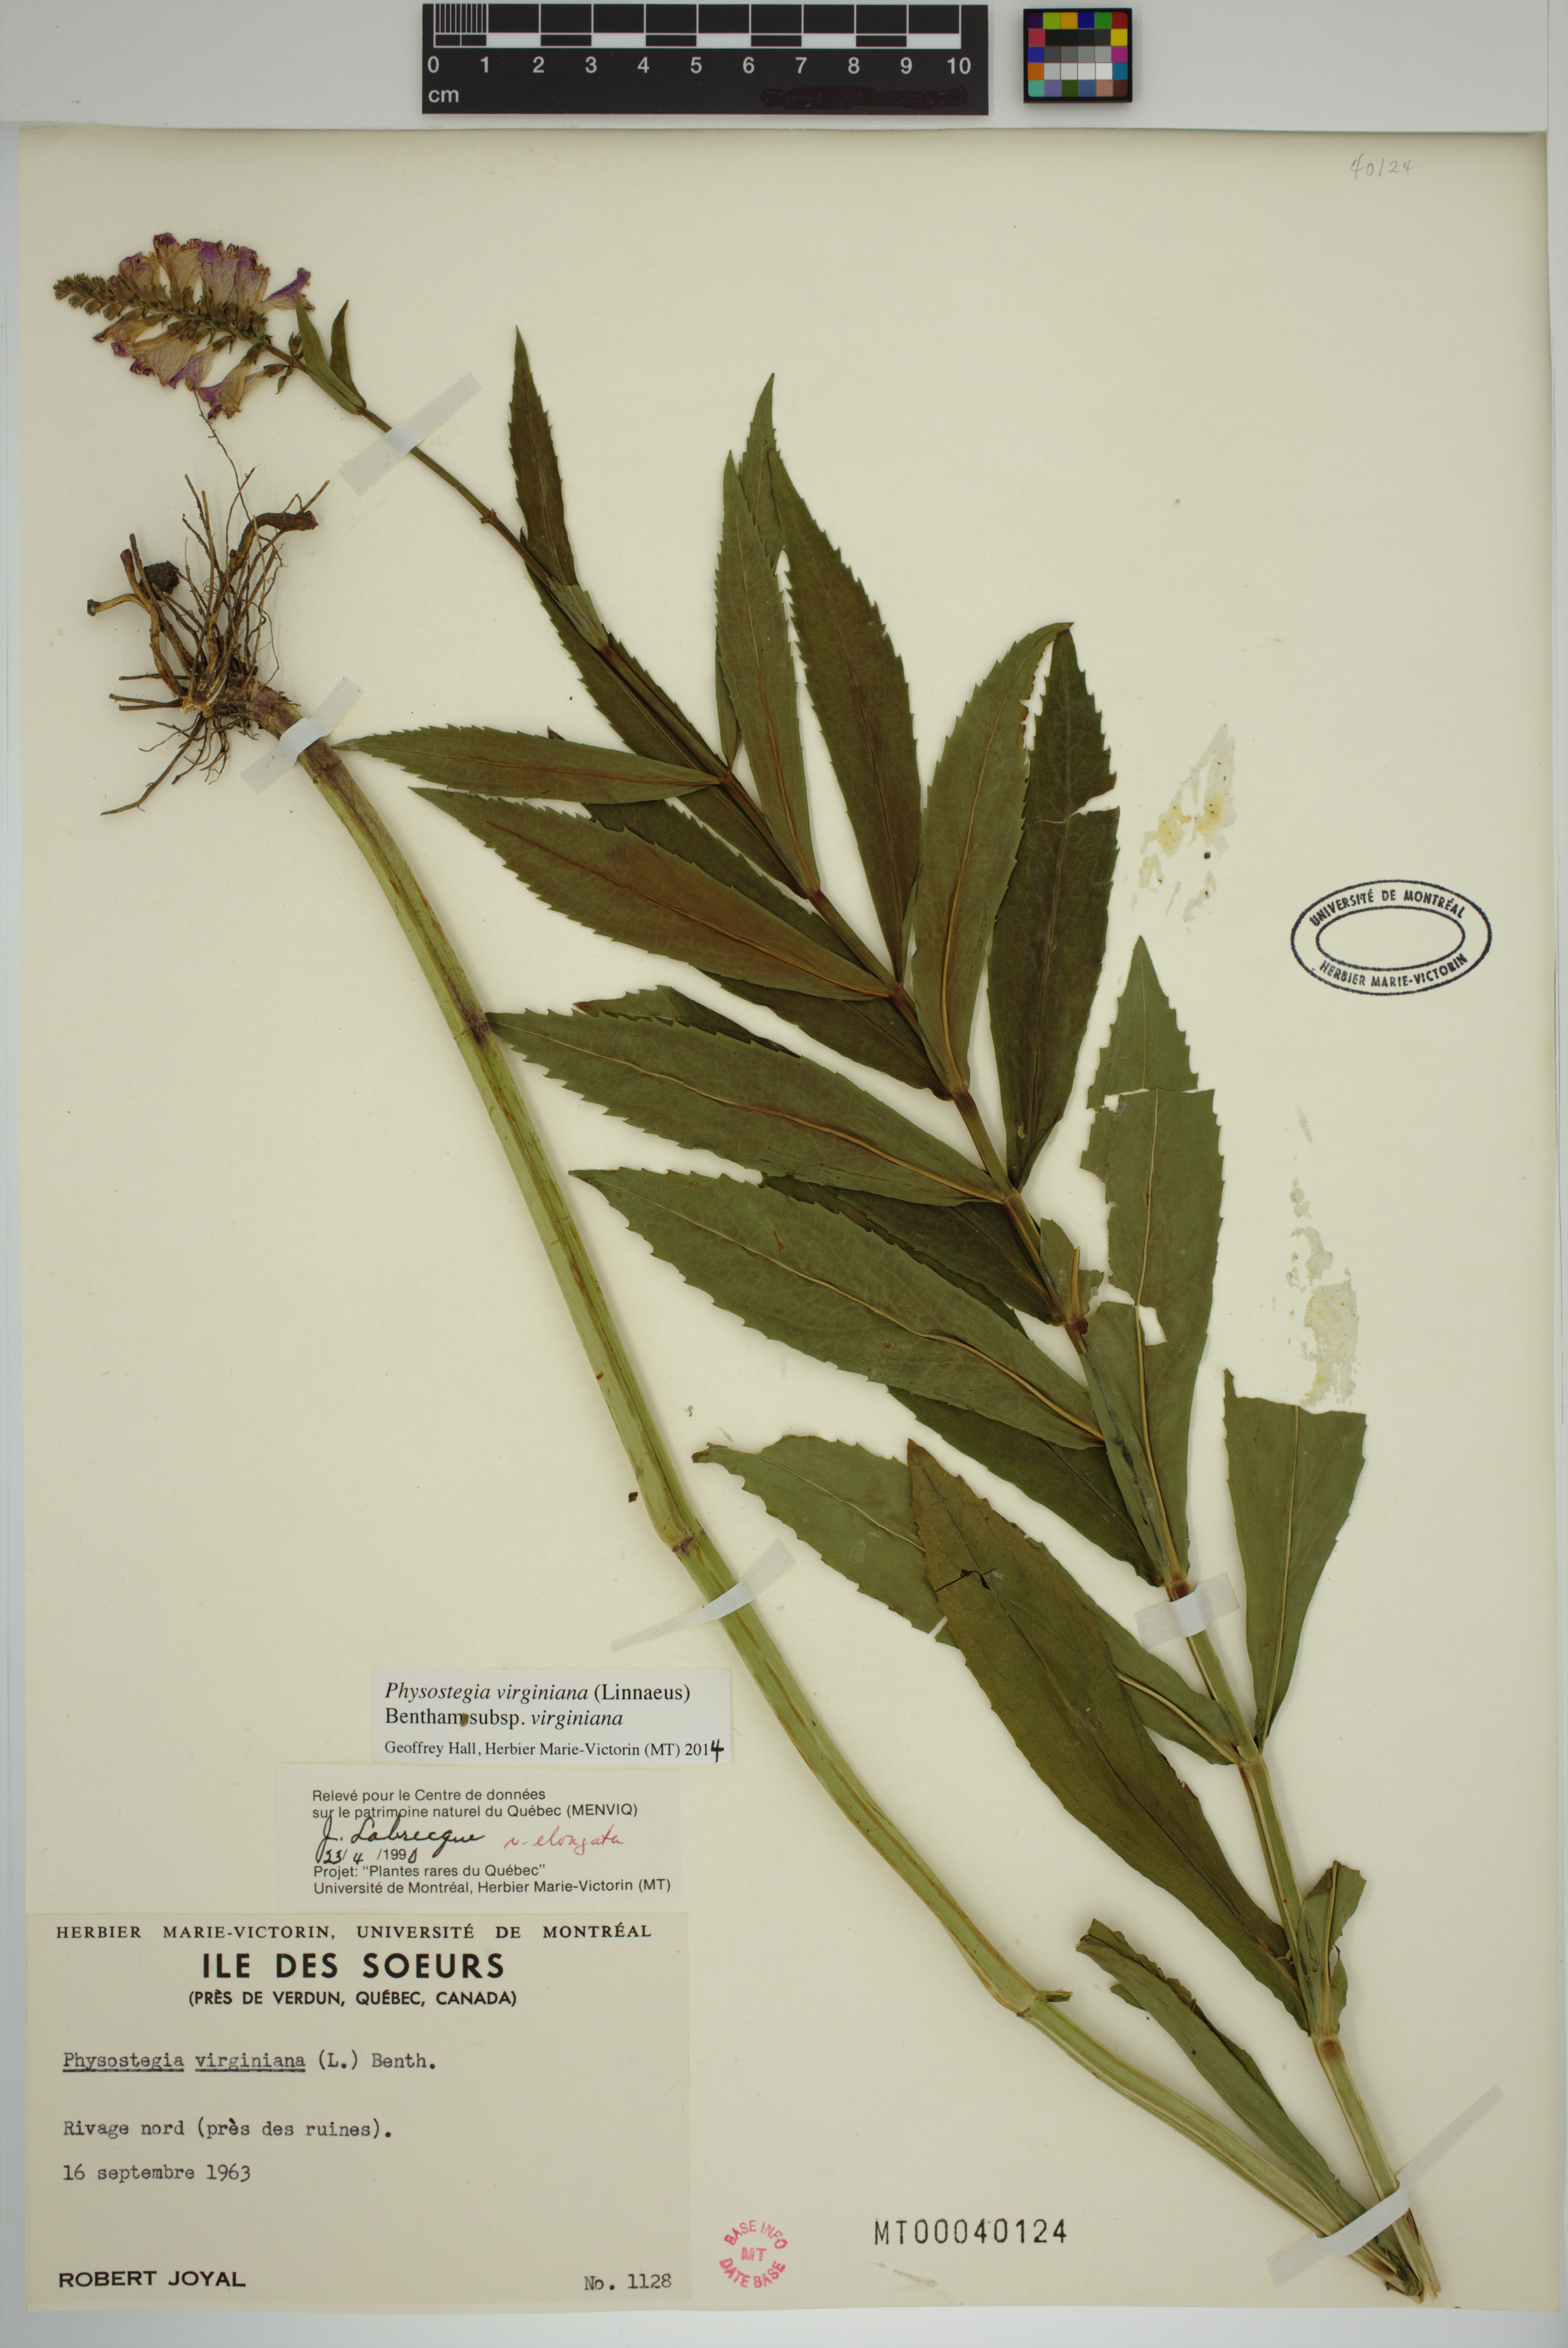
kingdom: Plantae
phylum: Tracheophyta
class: Magnoliopsida
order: Lamiales
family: Lamiaceae
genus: Physostegia
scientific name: Physostegia virginiana
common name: Obedient-plant
